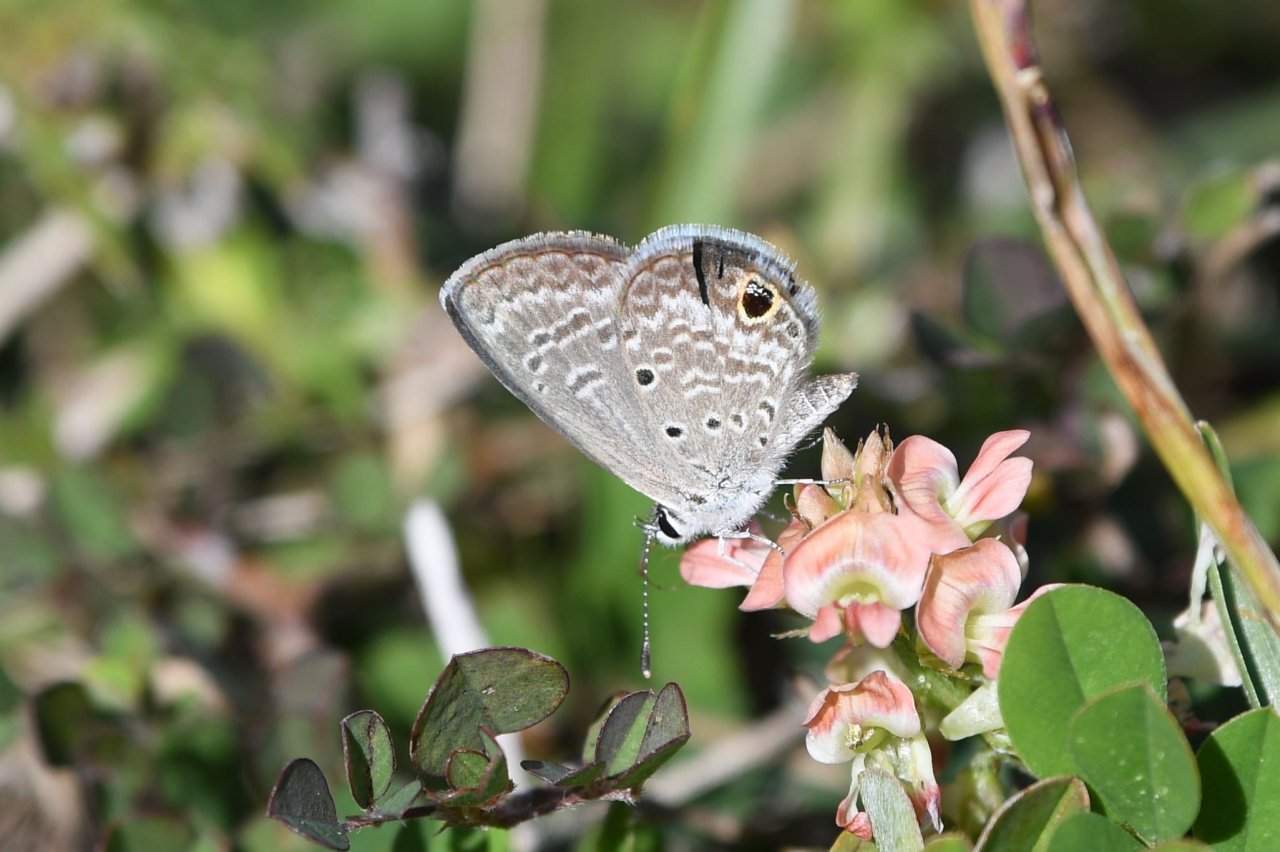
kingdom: Animalia
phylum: Arthropoda
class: Insecta
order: Lepidoptera
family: Lycaenidae
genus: Hemiargus
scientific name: Hemiargus ceraunus
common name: Ceraunus Blue
